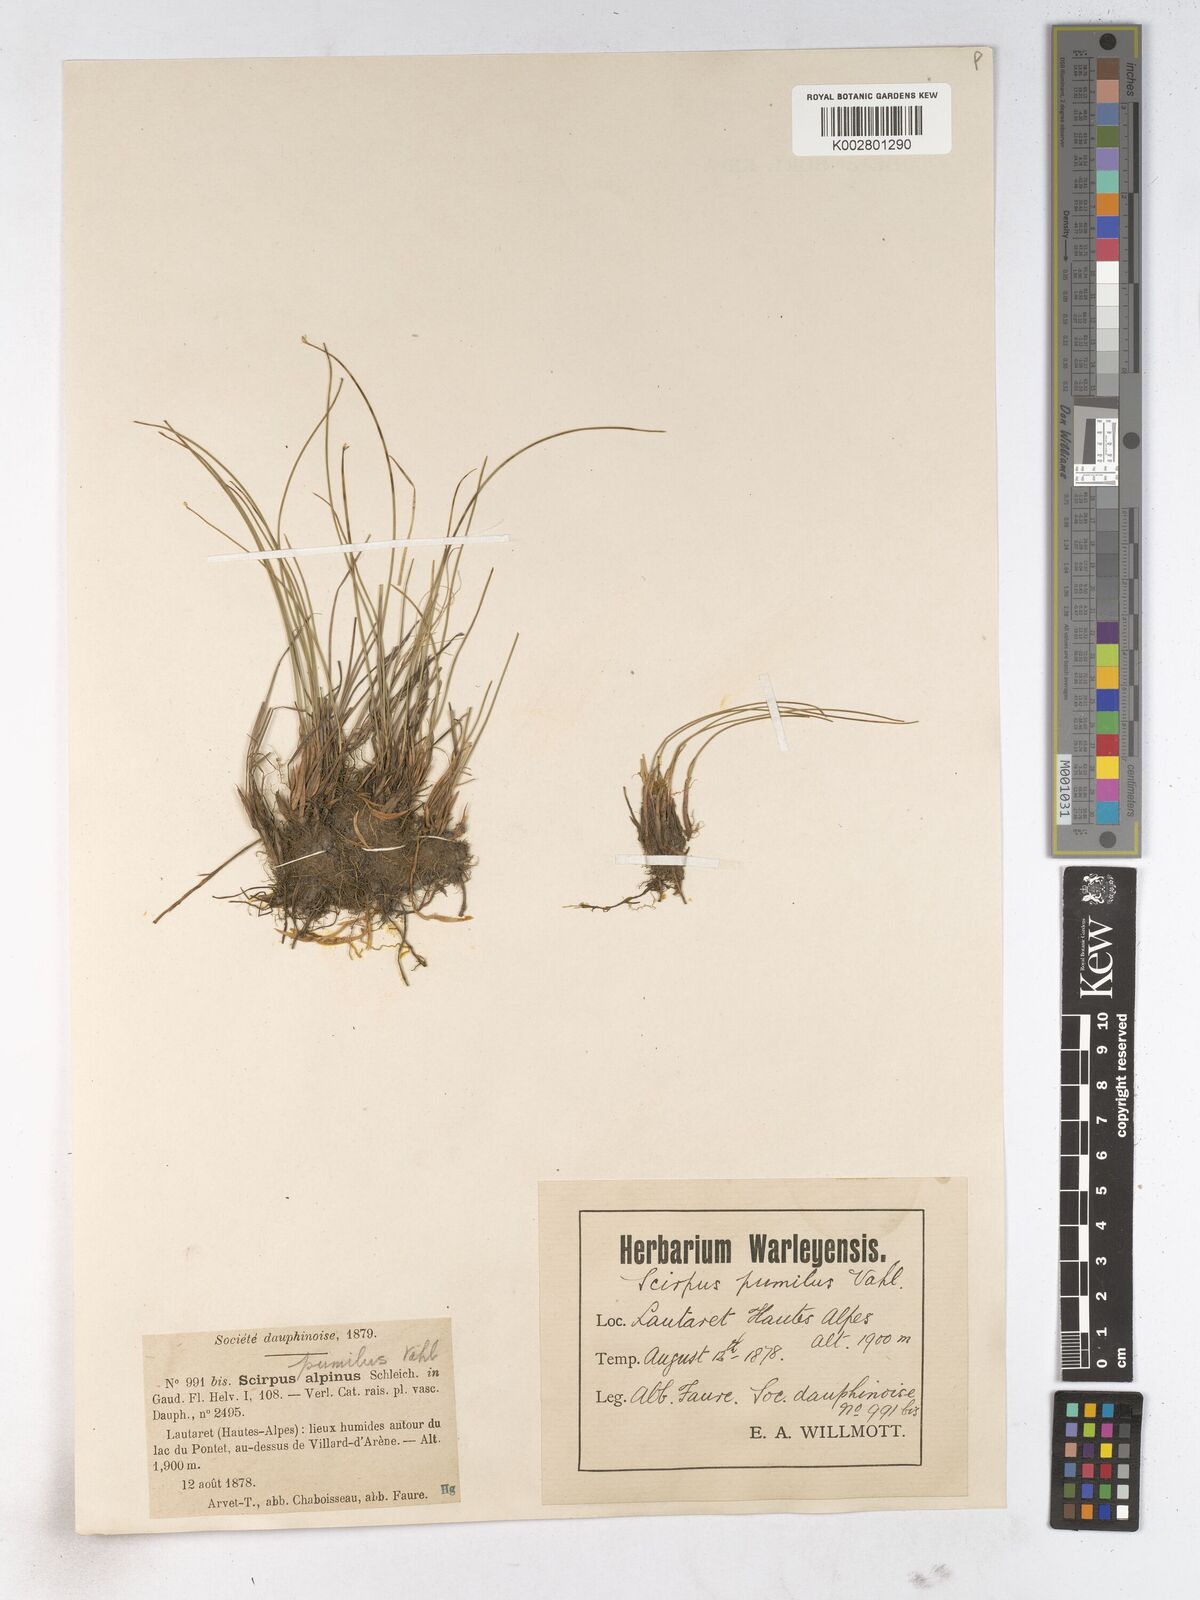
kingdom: Plantae
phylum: Tracheophyta
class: Liliopsida
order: Poales
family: Cyperaceae
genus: Trichophorum
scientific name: Trichophorum pumilum
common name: Rolland's bulrush
